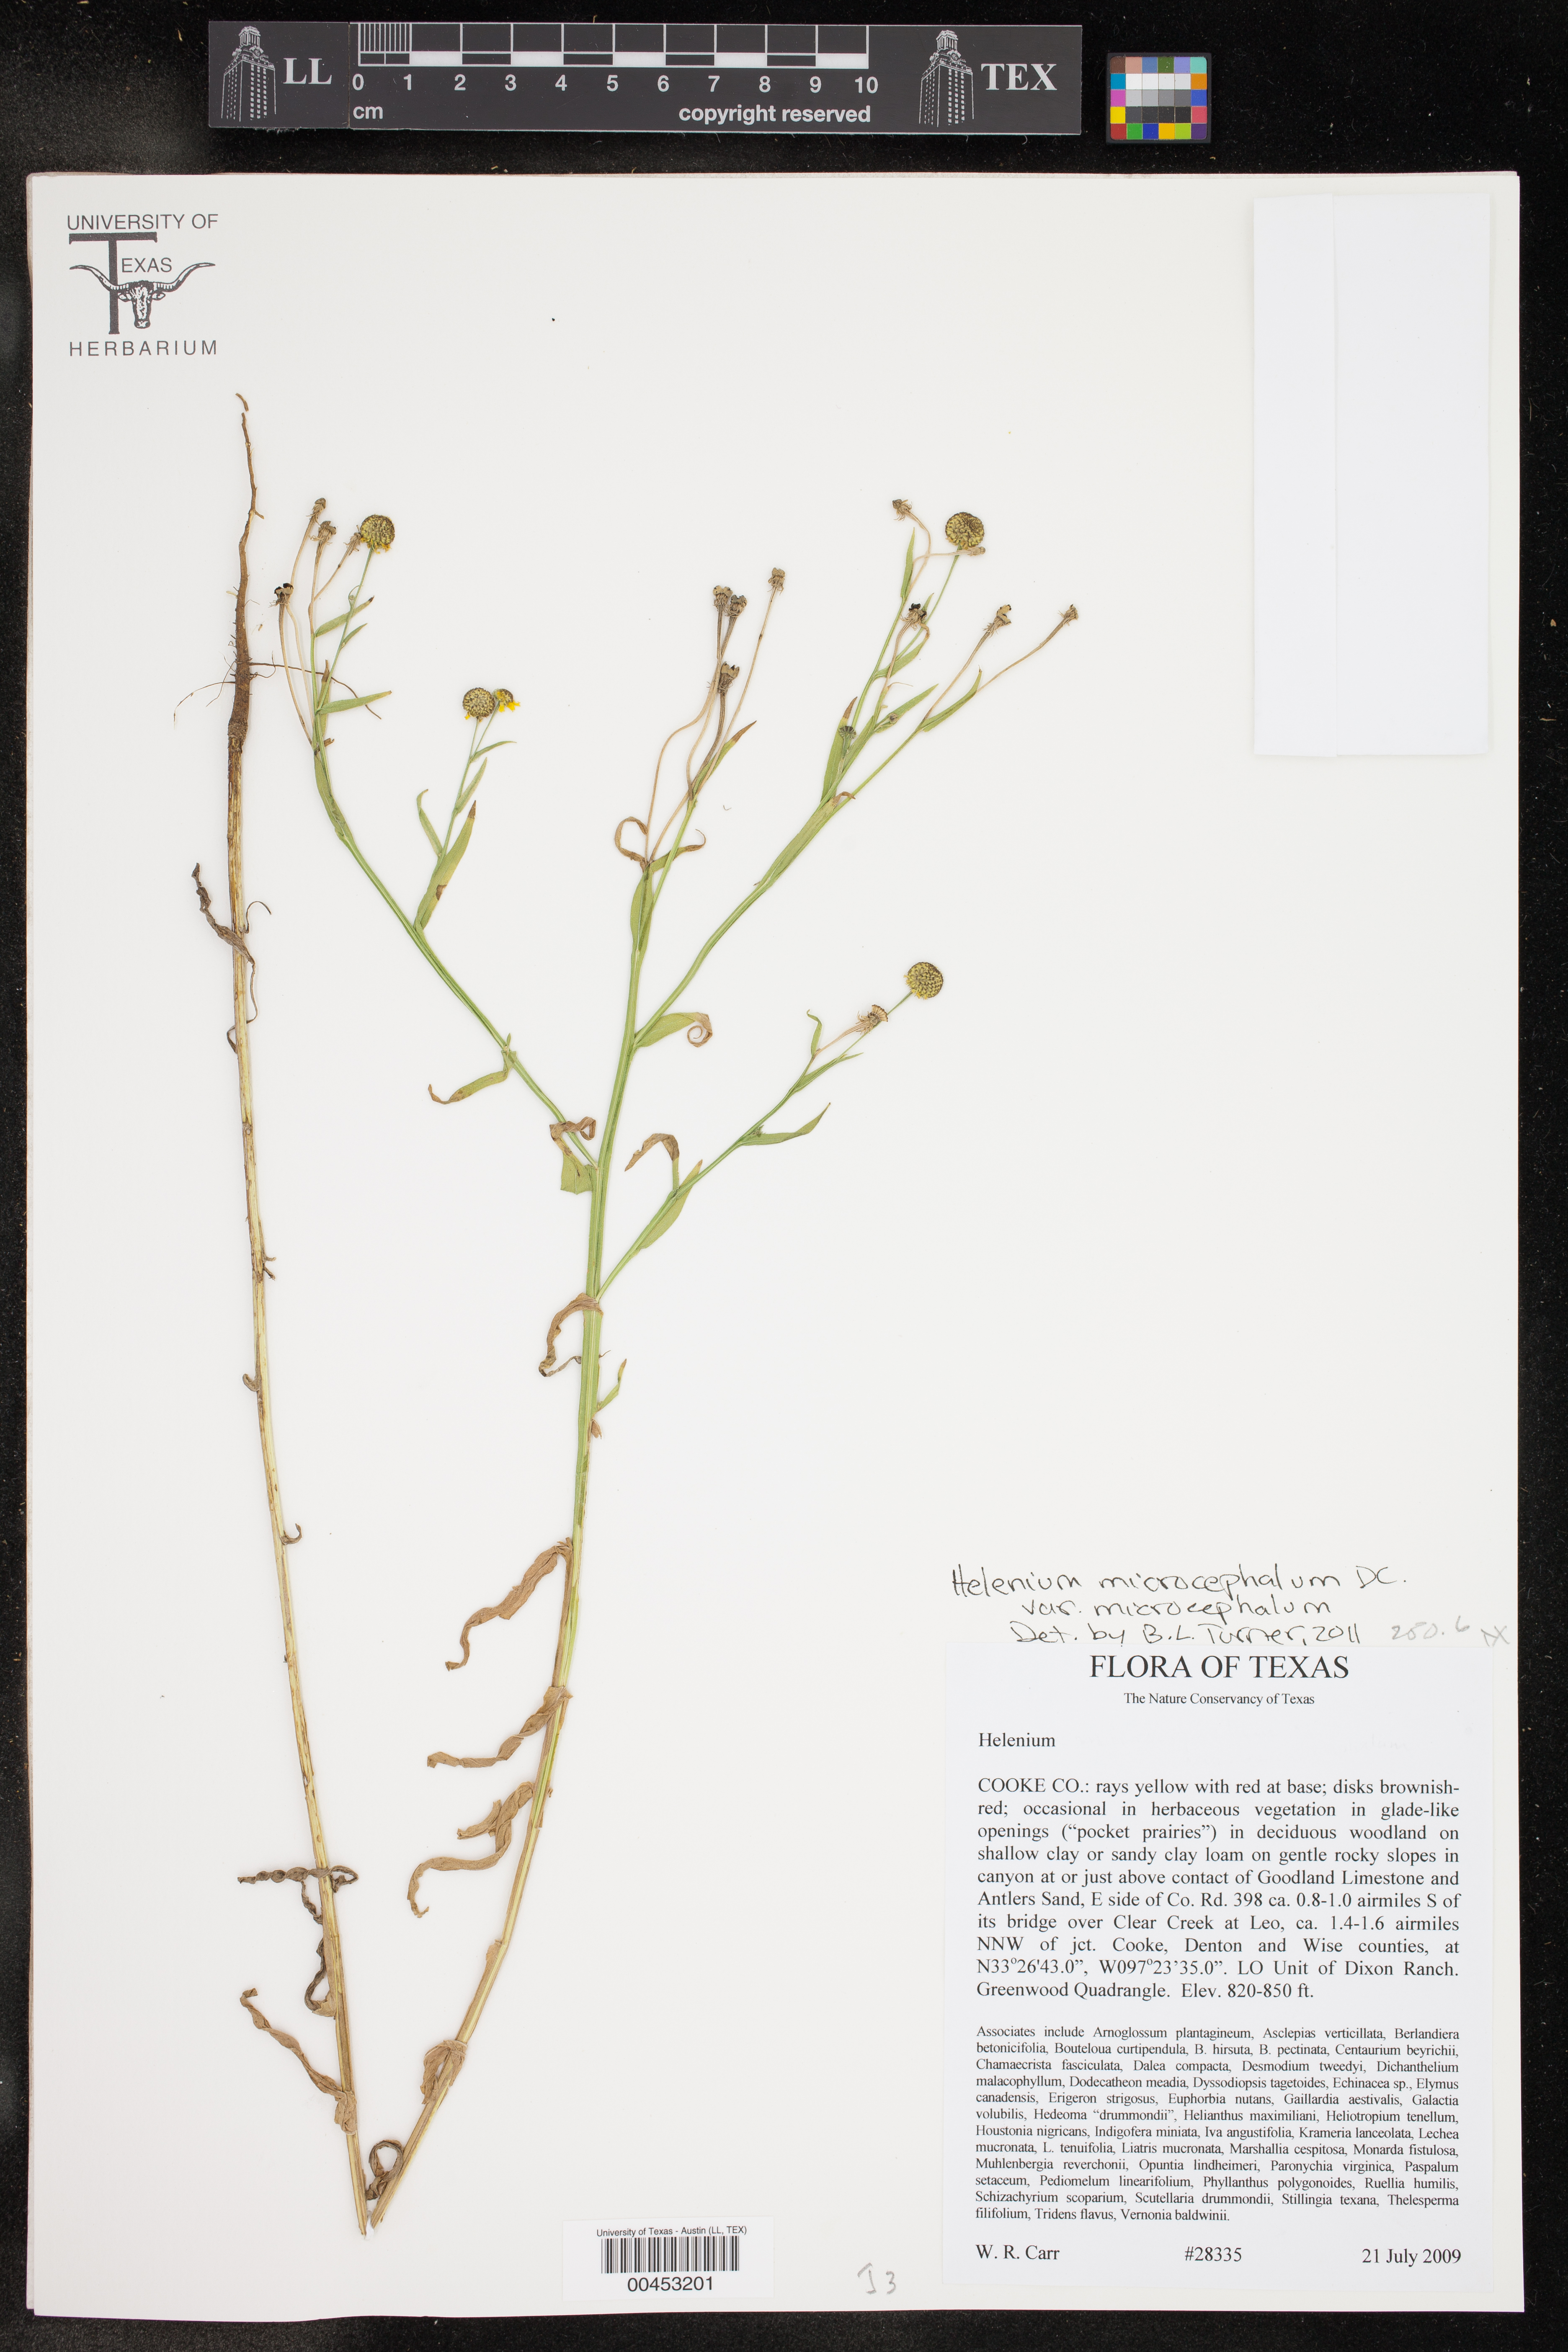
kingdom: Plantae
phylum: Tracheophyta
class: Magnoliopsida
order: Asterales
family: Asteraceae
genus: Helenium
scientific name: Helenium microcephalum
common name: Smallhead sneezeweed
